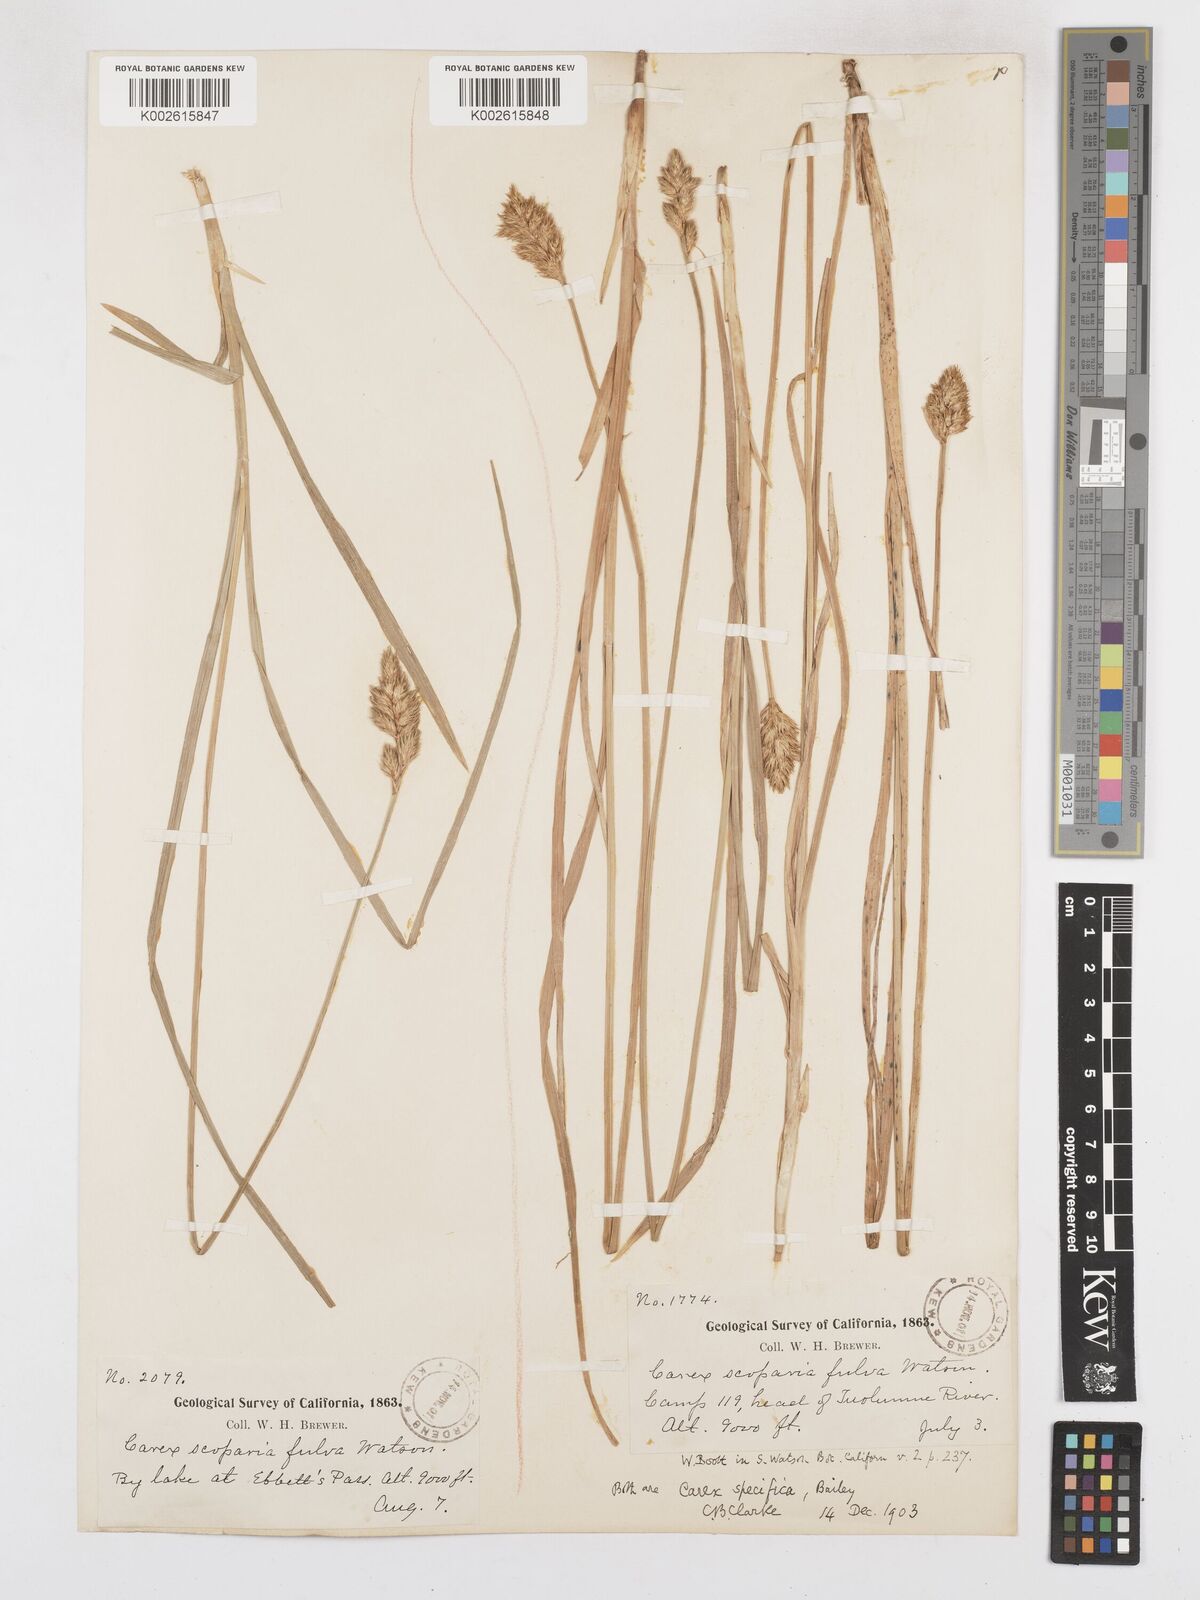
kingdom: Plantae
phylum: Tracheophyta
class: Liliopsida
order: Poales
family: Cyperaceae
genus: Carex
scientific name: Carex specifica
